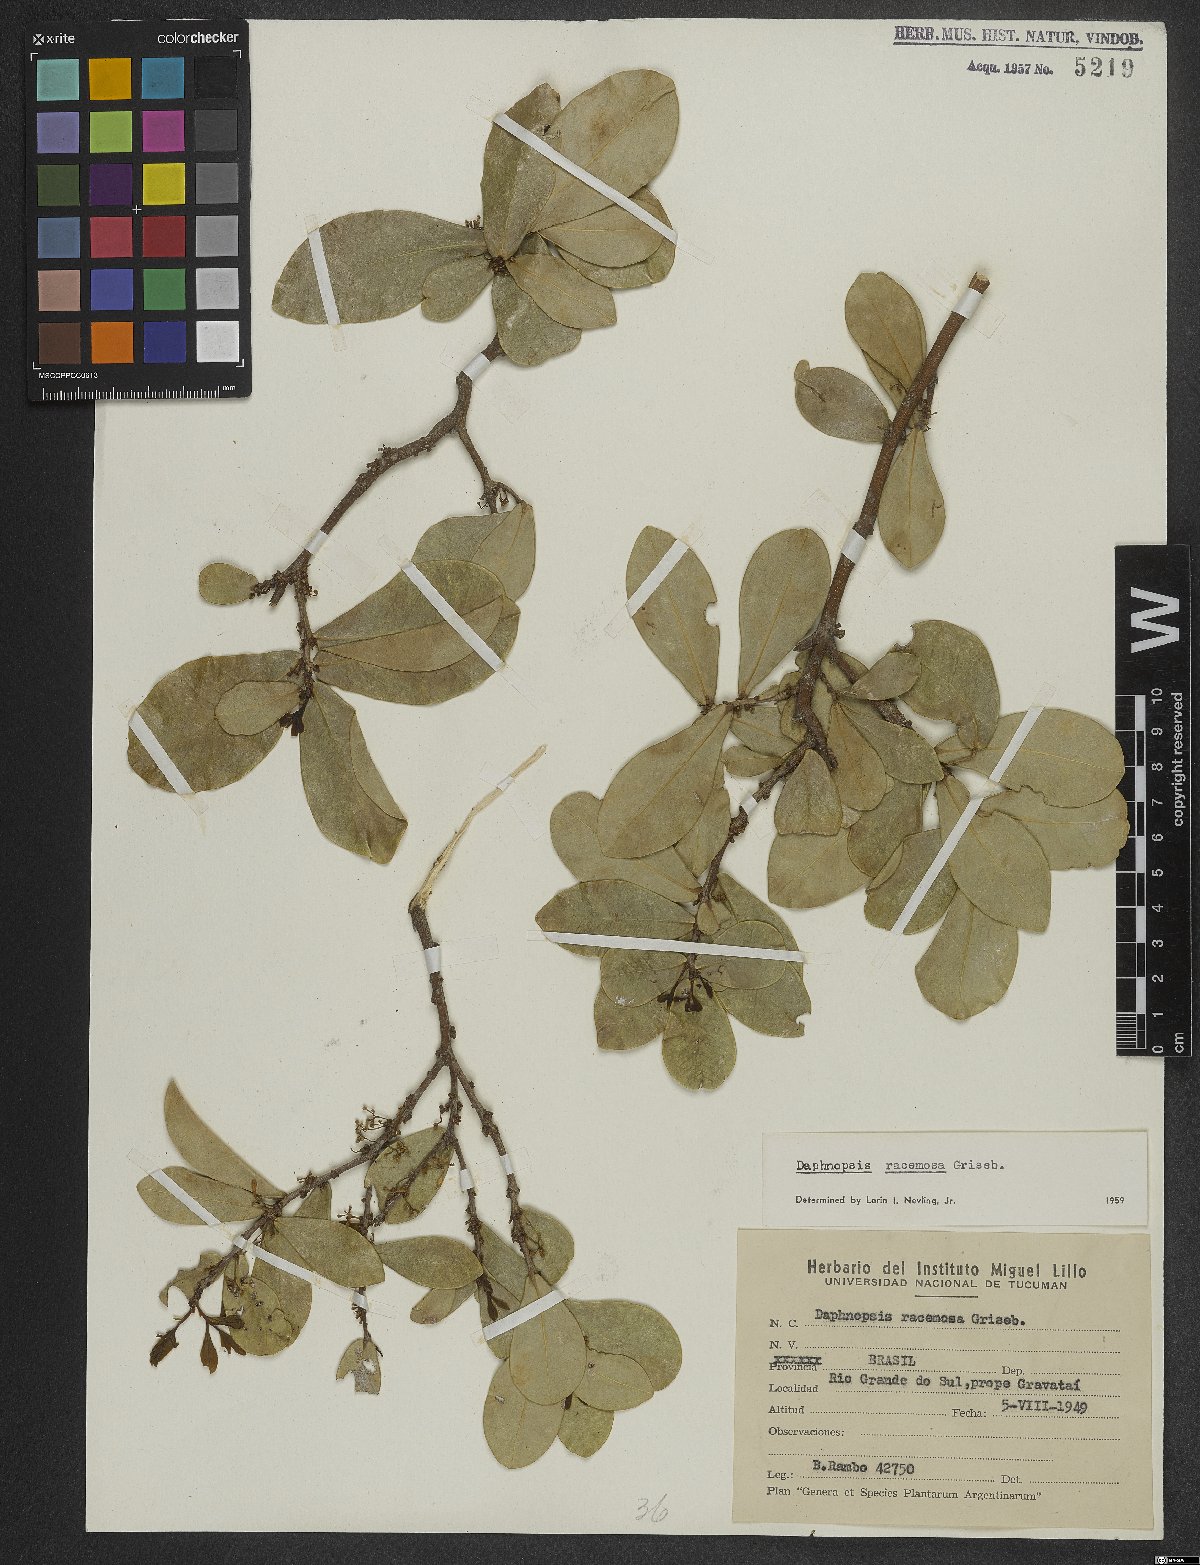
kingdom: Plantae
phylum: Tracheophyta
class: Magnoliopsida
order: Malvales
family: Thymelaeaceae
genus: Daphnopsis
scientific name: Daphnopsis racemosa
